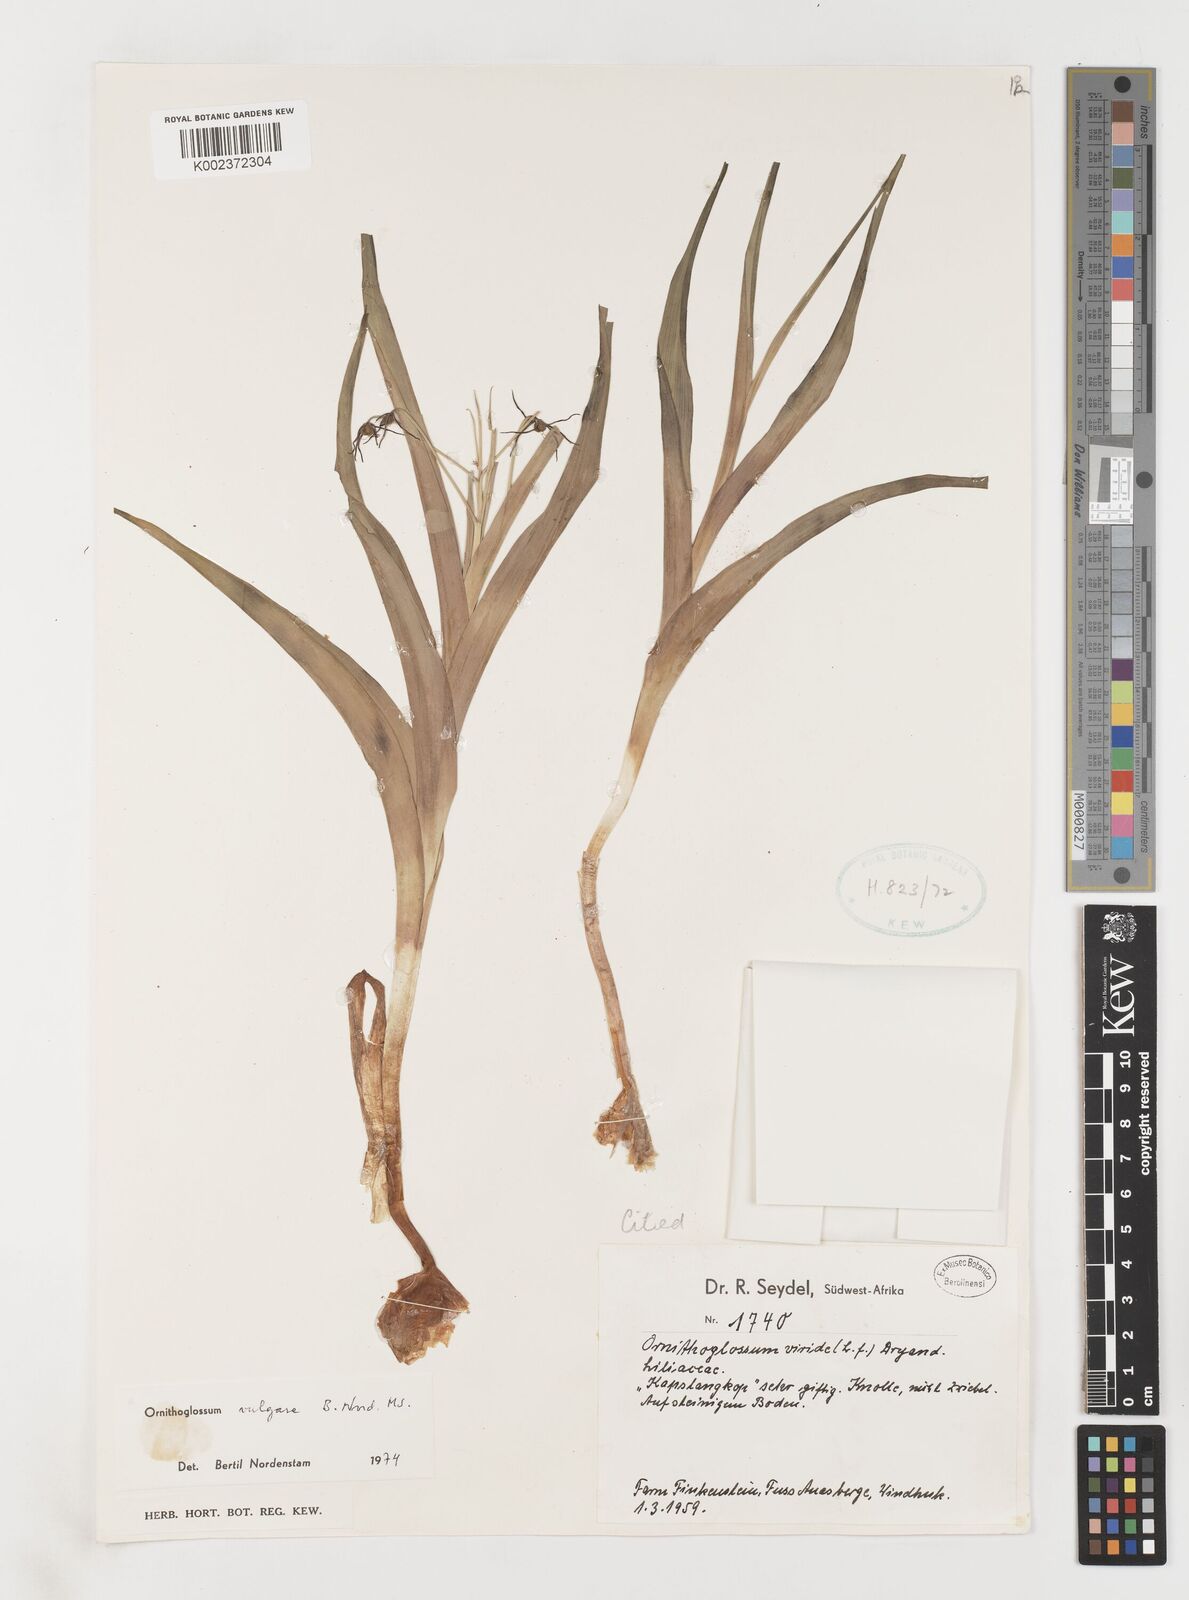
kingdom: Plantae
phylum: Tracheophyta
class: Liliopsida
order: Liliales
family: Colchicaceae
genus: Ornithoglossum
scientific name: Ornithoglossum vulgare
